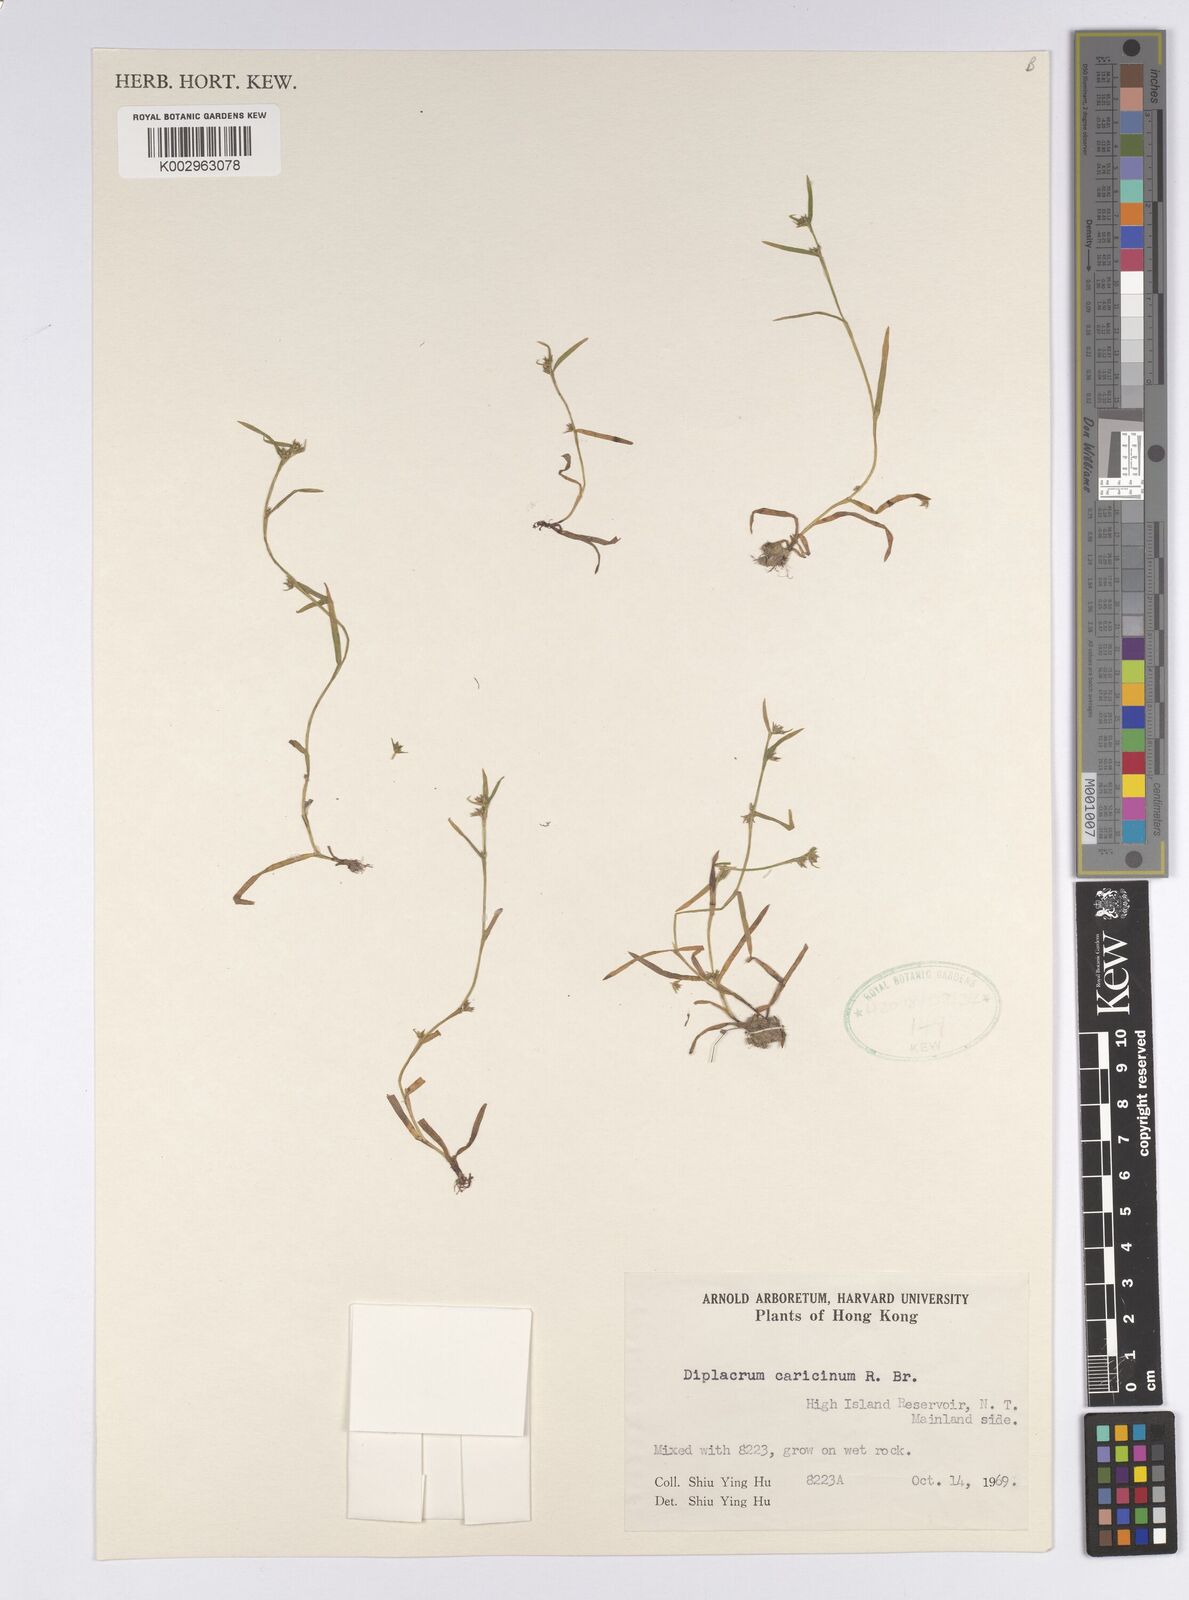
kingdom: Plantae
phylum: Tracheophyta
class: Liliopsida
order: Poales
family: Cyperaceae
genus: Diplacrum
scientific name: Diplacrum caricinum
